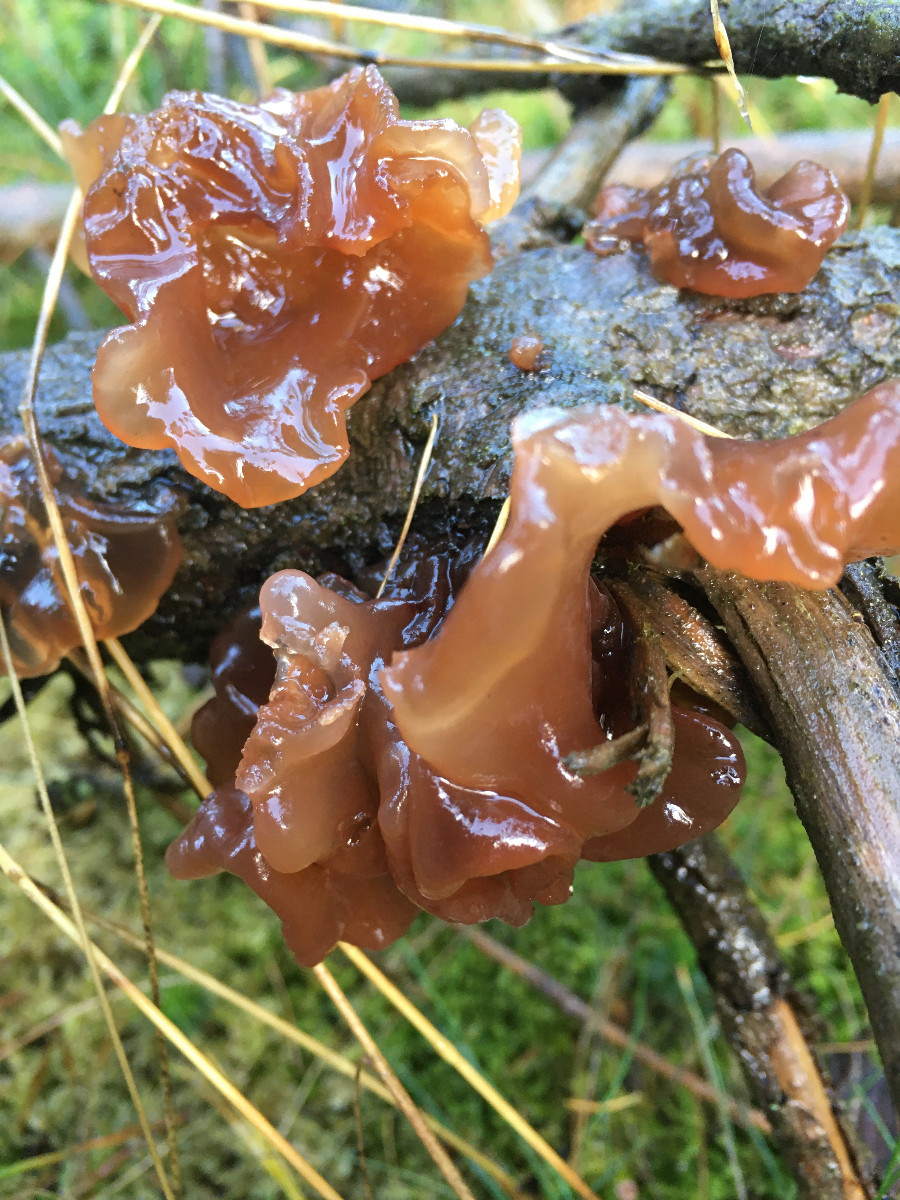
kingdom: Fungi
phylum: Basidiomycota
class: Tremellomycetes
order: Tremellales
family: Tremellaceae
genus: Phaeotremella
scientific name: Phaeotremella foliacea
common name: brun bævresvamp
